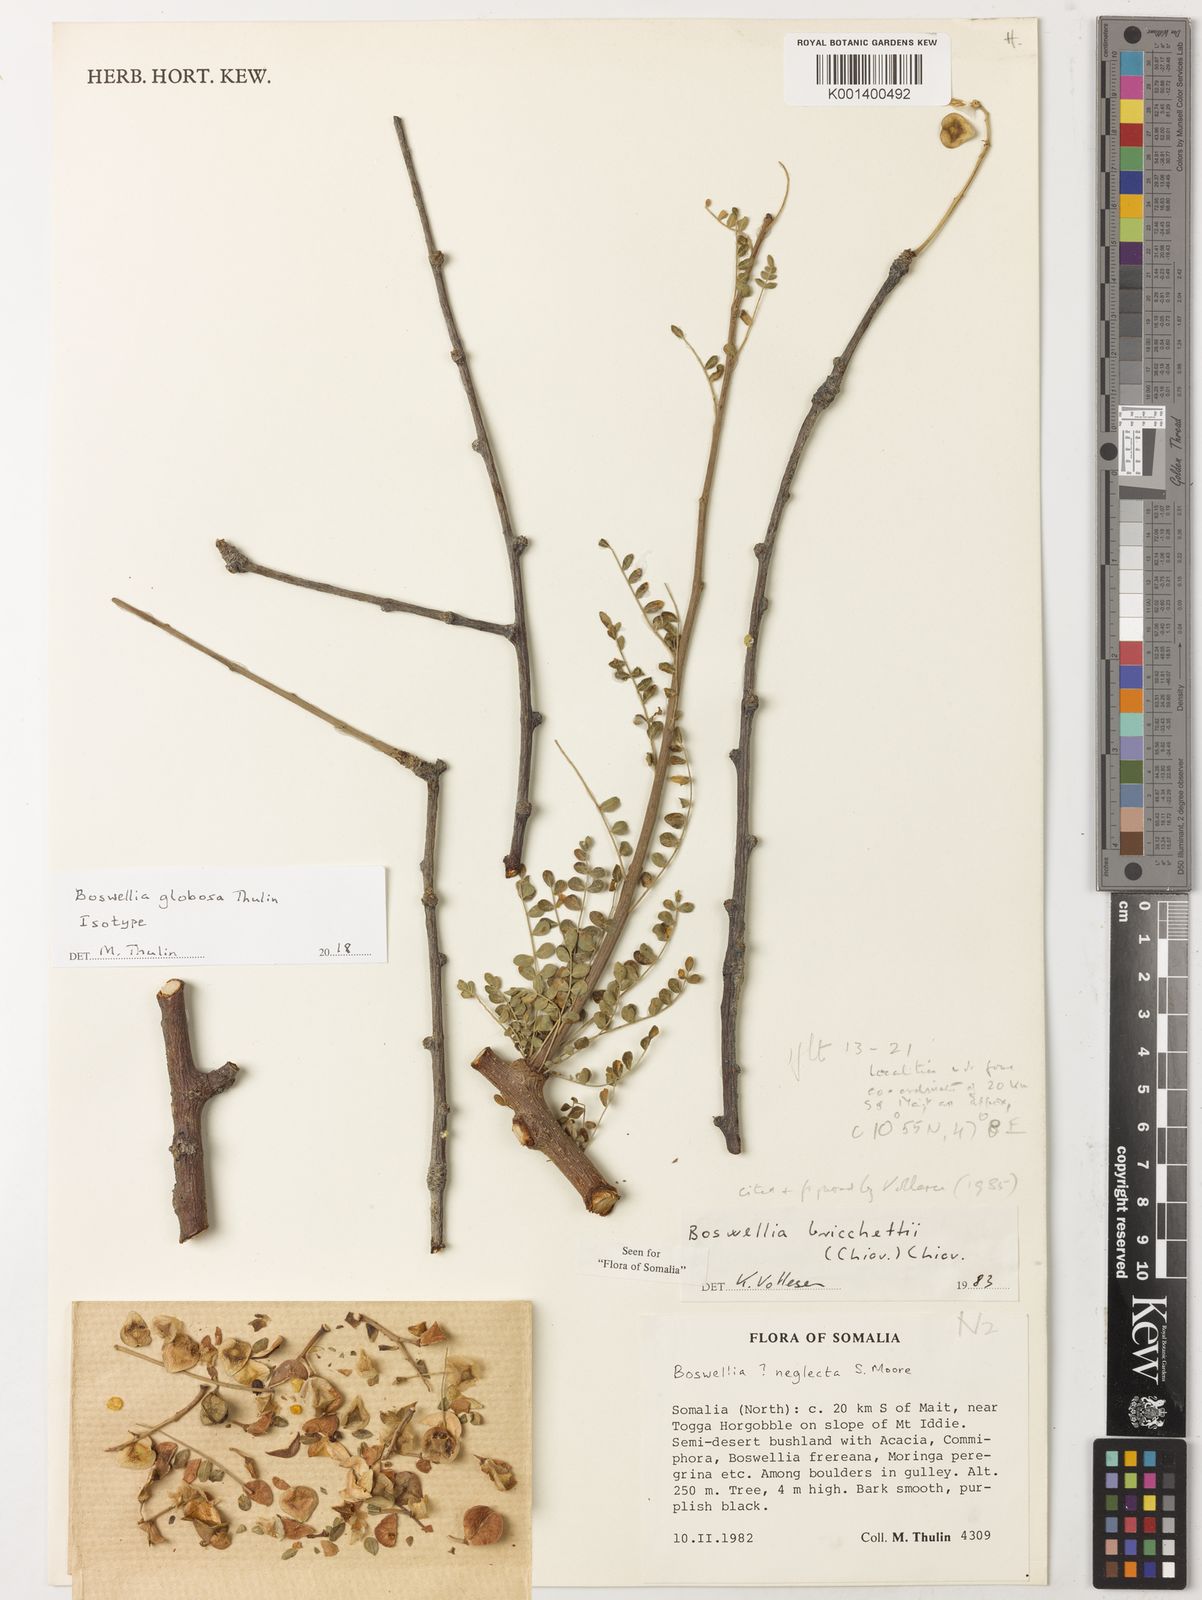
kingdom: Plantae
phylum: Tracheophyta
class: Magnoliopsida
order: Sapindales
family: Burseraceae
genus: Boswellia
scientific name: Boswellia globosa
